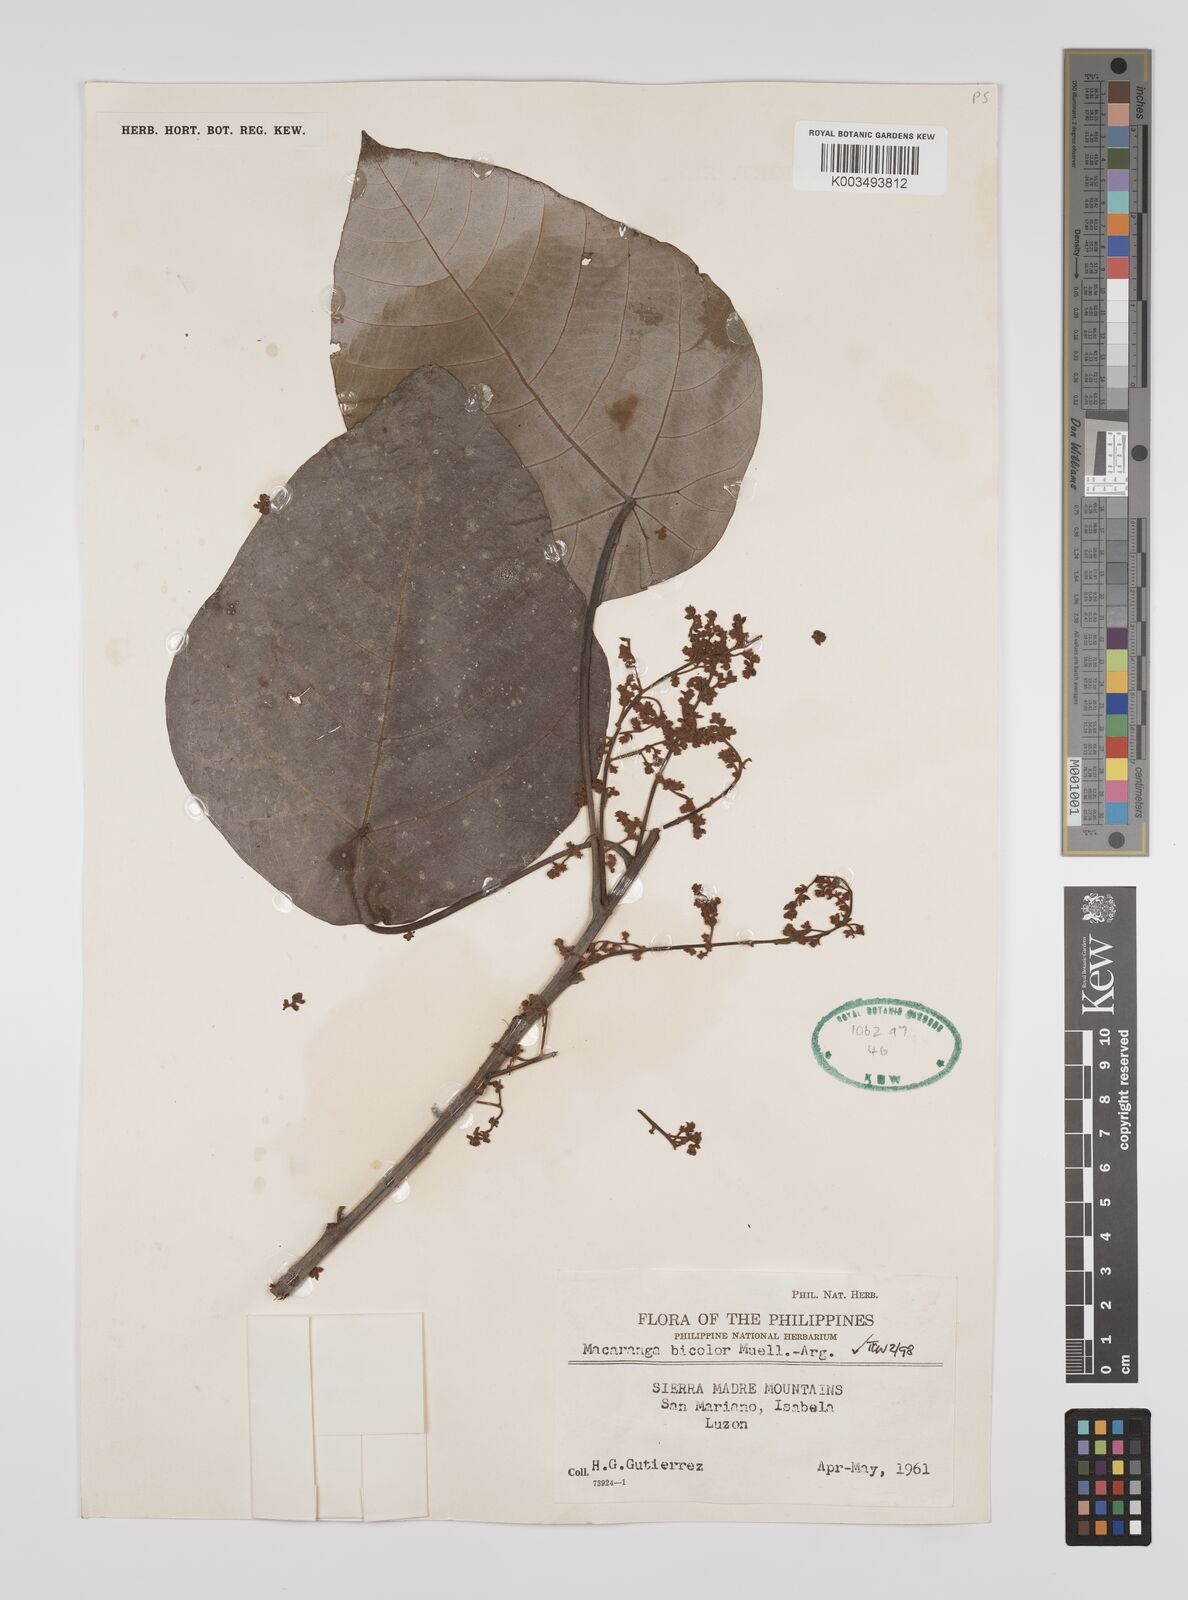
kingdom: Plantae
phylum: Tracheophyta
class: Magnoliopsida
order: Malpighiales
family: Euphorbiaceae
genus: Macaranga
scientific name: Macaranga bicolor
